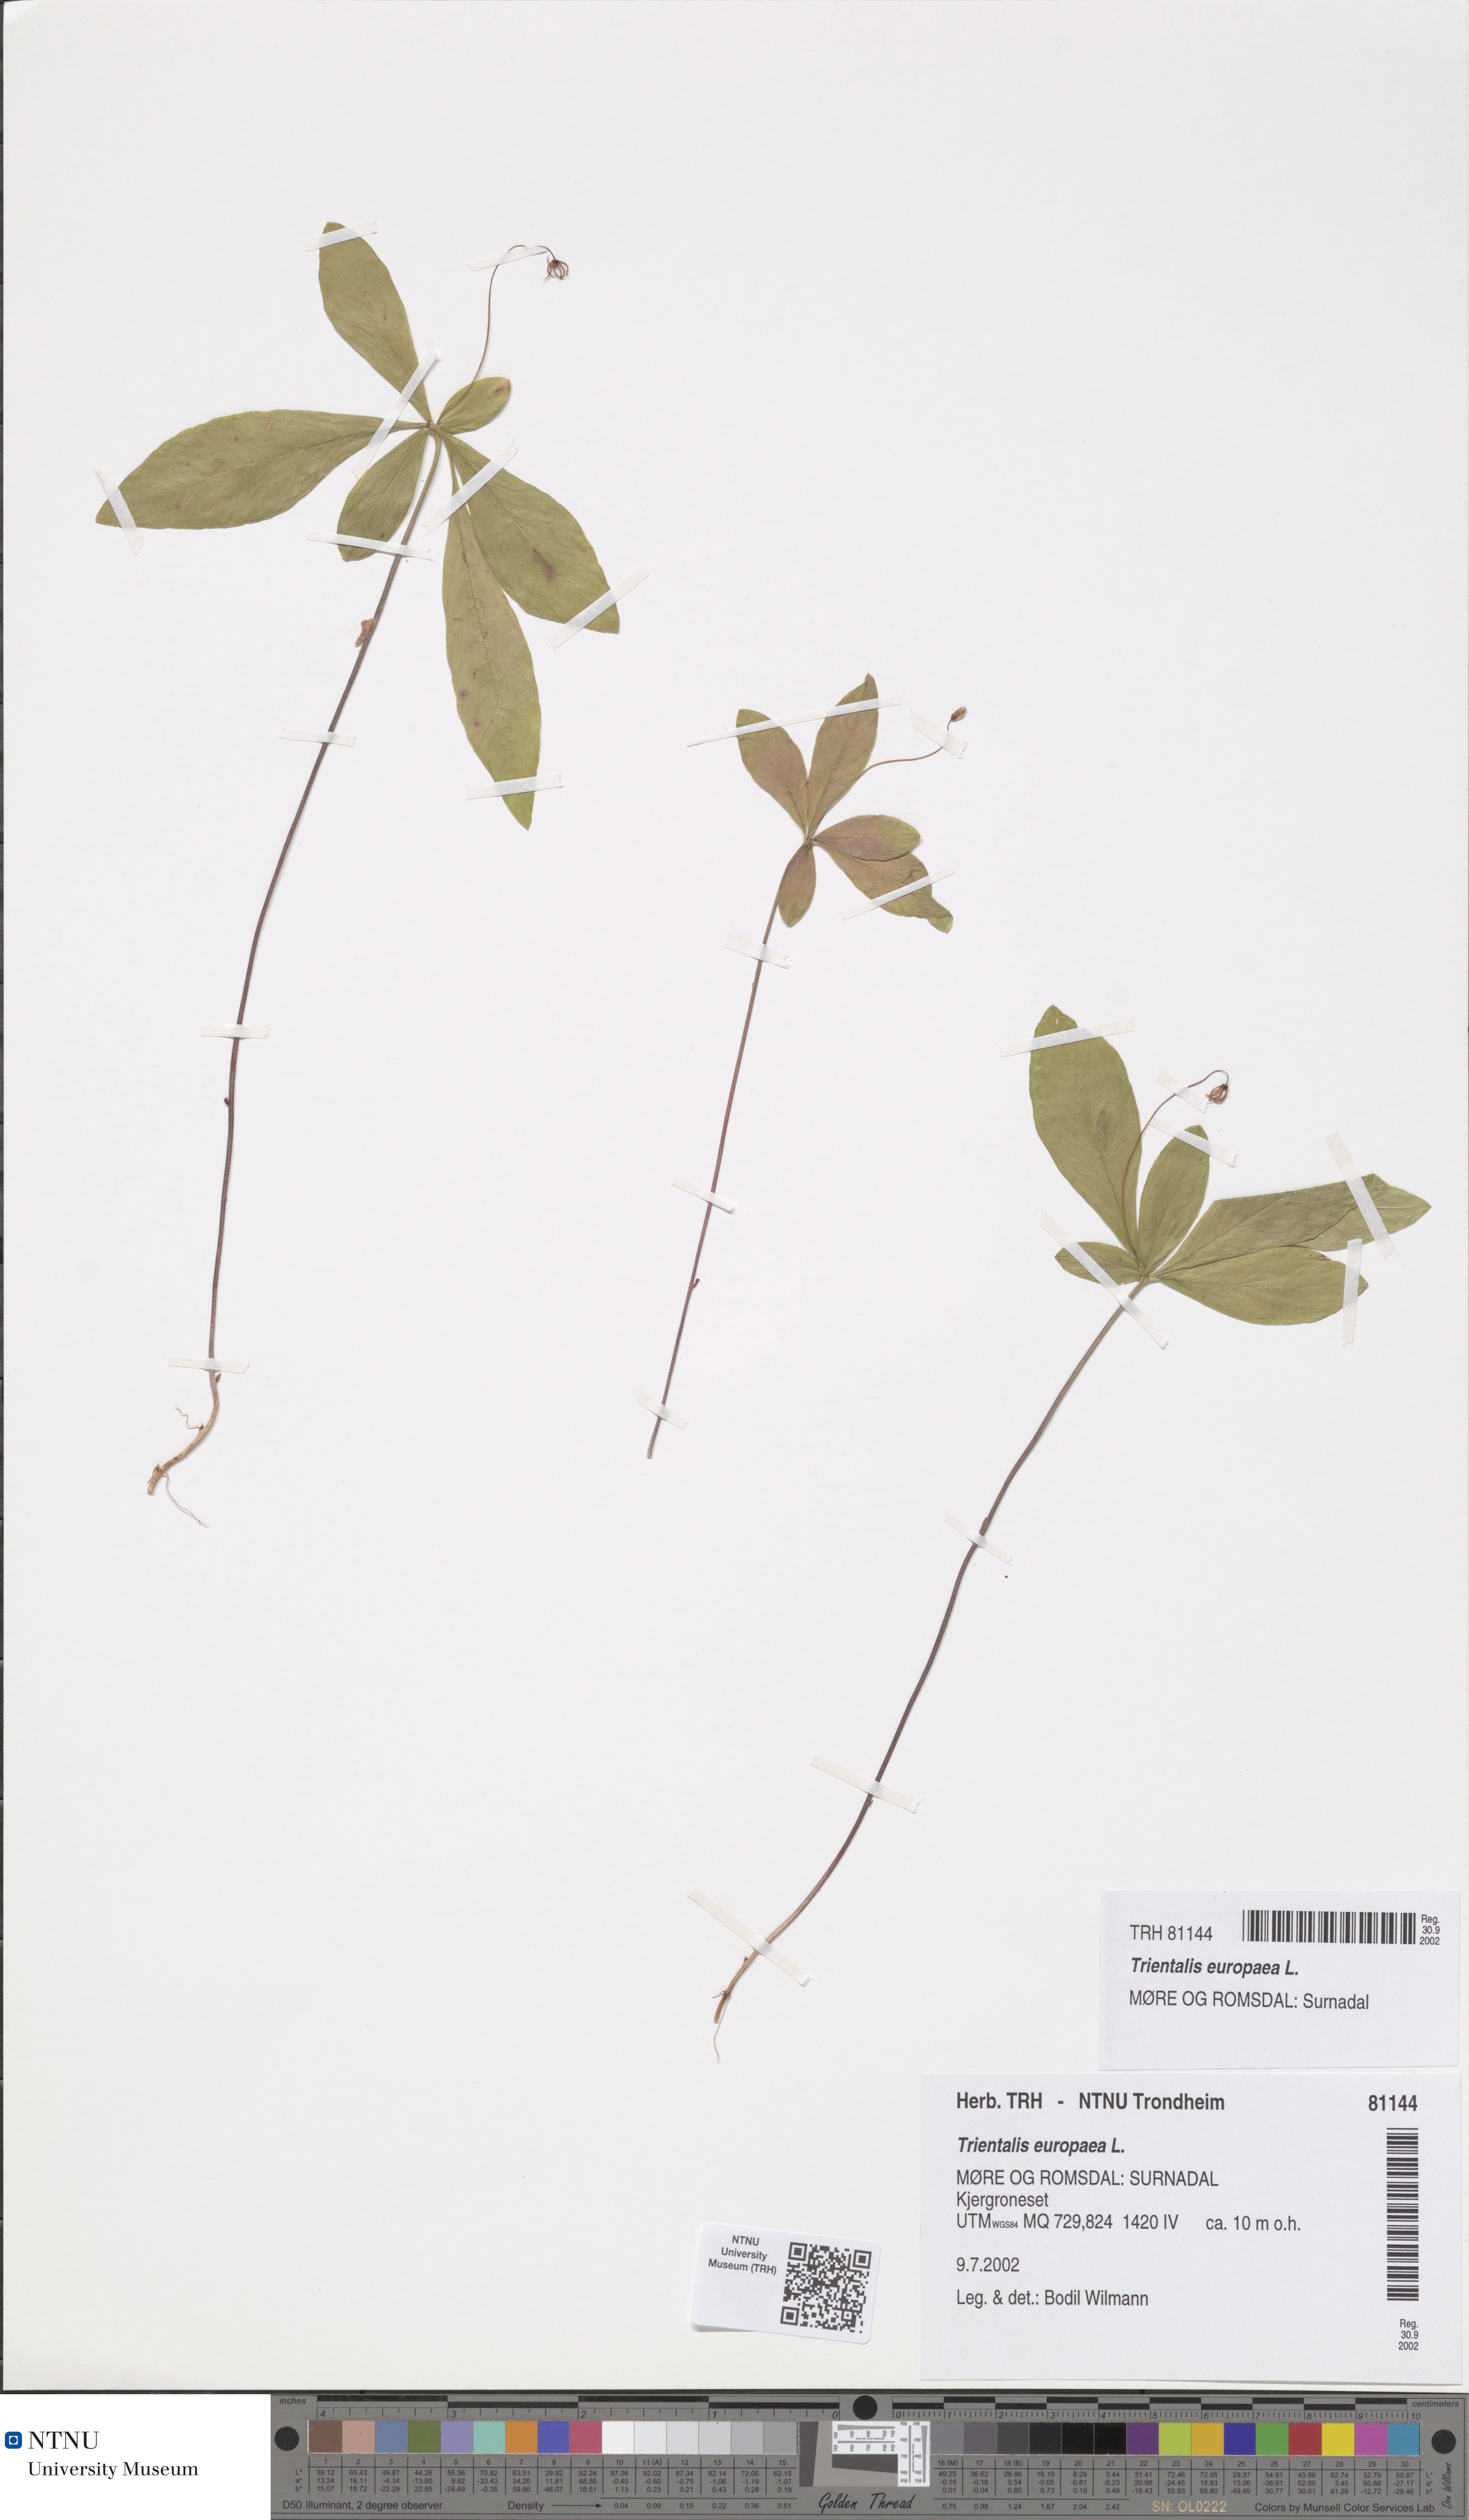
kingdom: Plantae
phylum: Tracheophyta
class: Magnoliopsida
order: Ericales
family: Primulaceae
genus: Lysimachia
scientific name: Lysimachia europaea
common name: Arctic starflower
